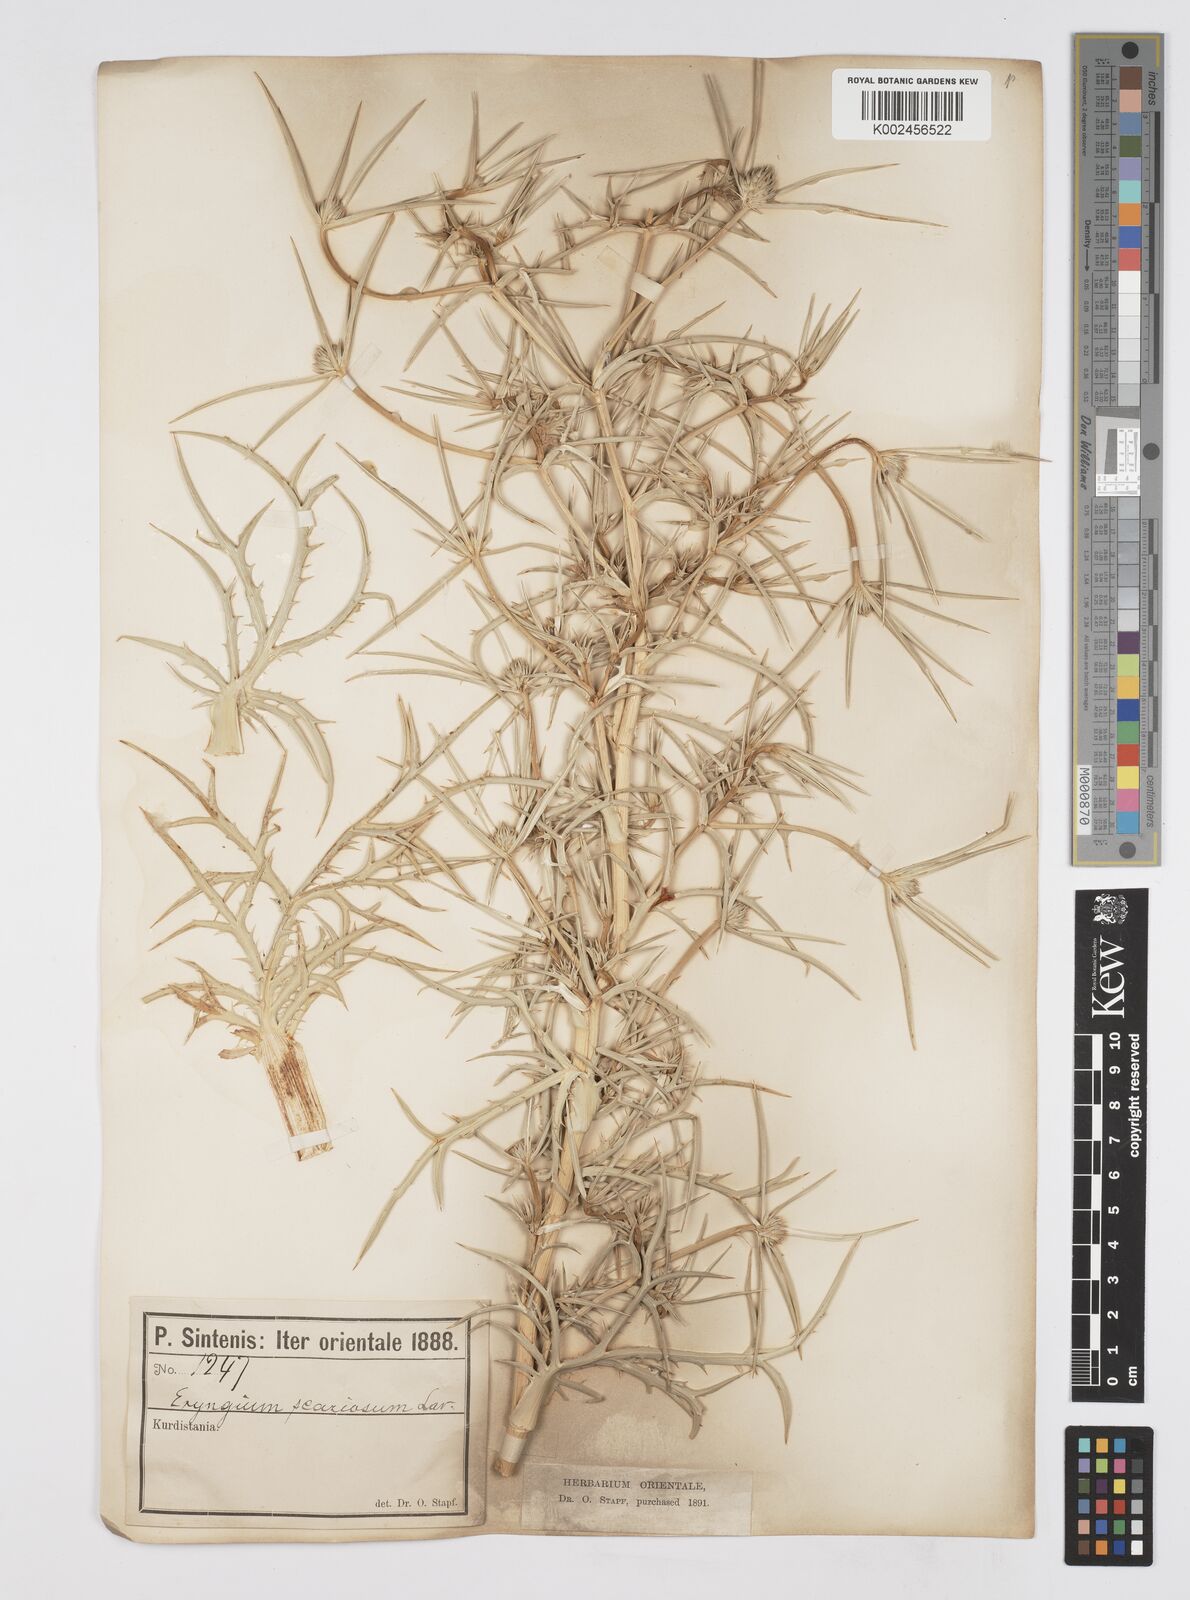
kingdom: Plantae
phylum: Tracheophyta
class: Magnoliopsida
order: Apiales
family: Apiaceae
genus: Eryngium
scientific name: Eryngium glomeratum
